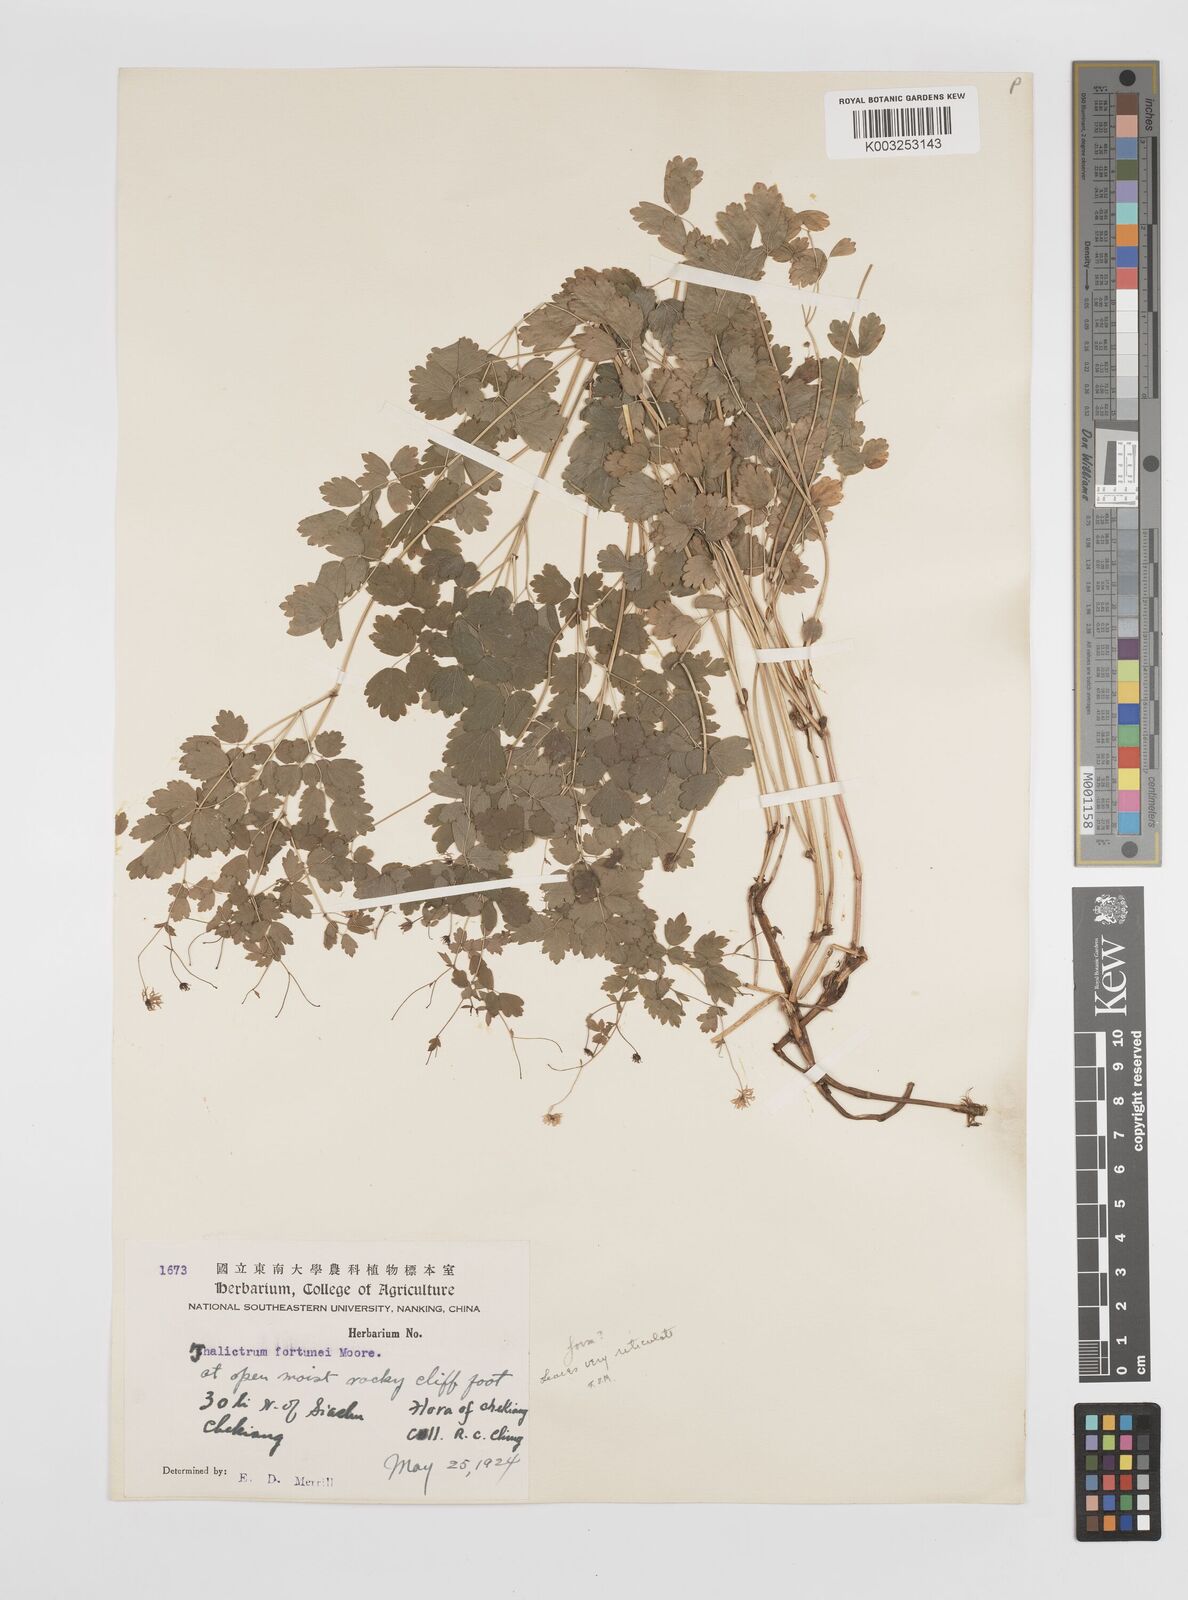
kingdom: Plantae
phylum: Tracheophyta
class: Magnoliopsida
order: Ranunculales
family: Ranunculaceae
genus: Thalictrum
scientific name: Thalictrum fortunei
